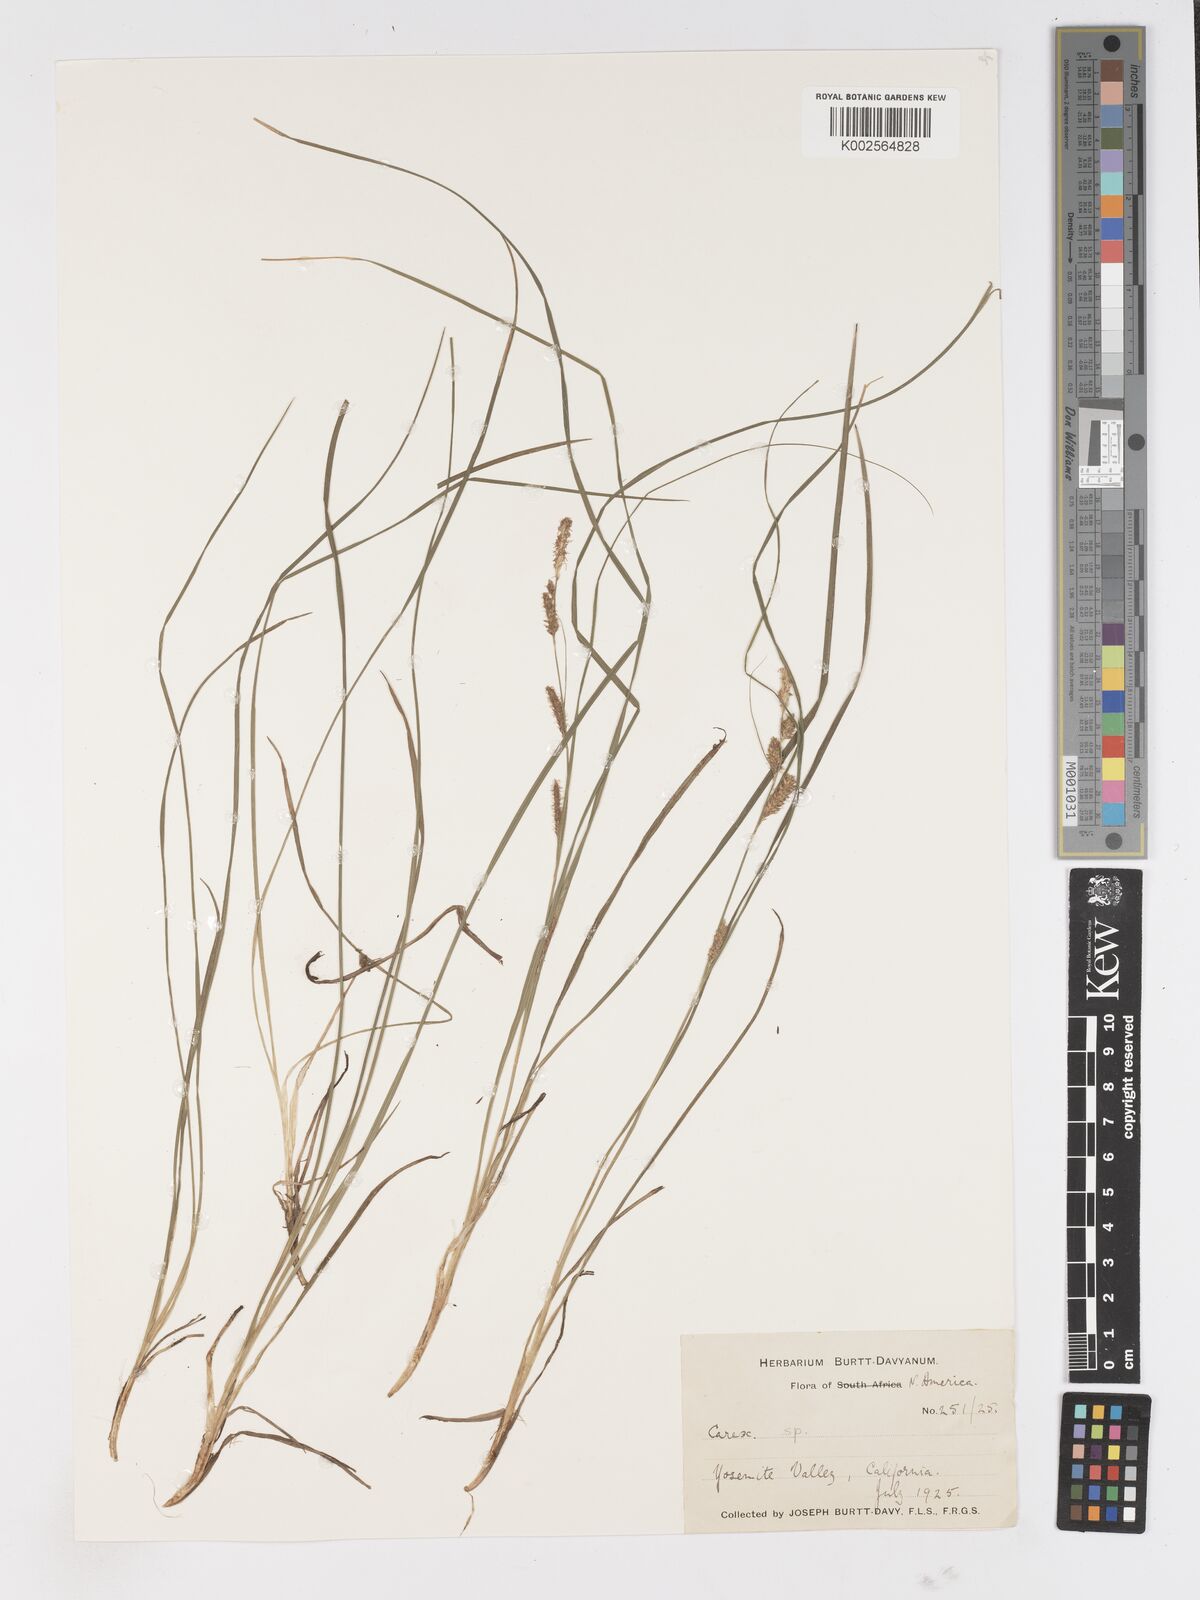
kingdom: Plantae
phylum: Tracheophyta
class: Liliopsida
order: Poales
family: Cyperaceae
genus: Carex
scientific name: Carex
